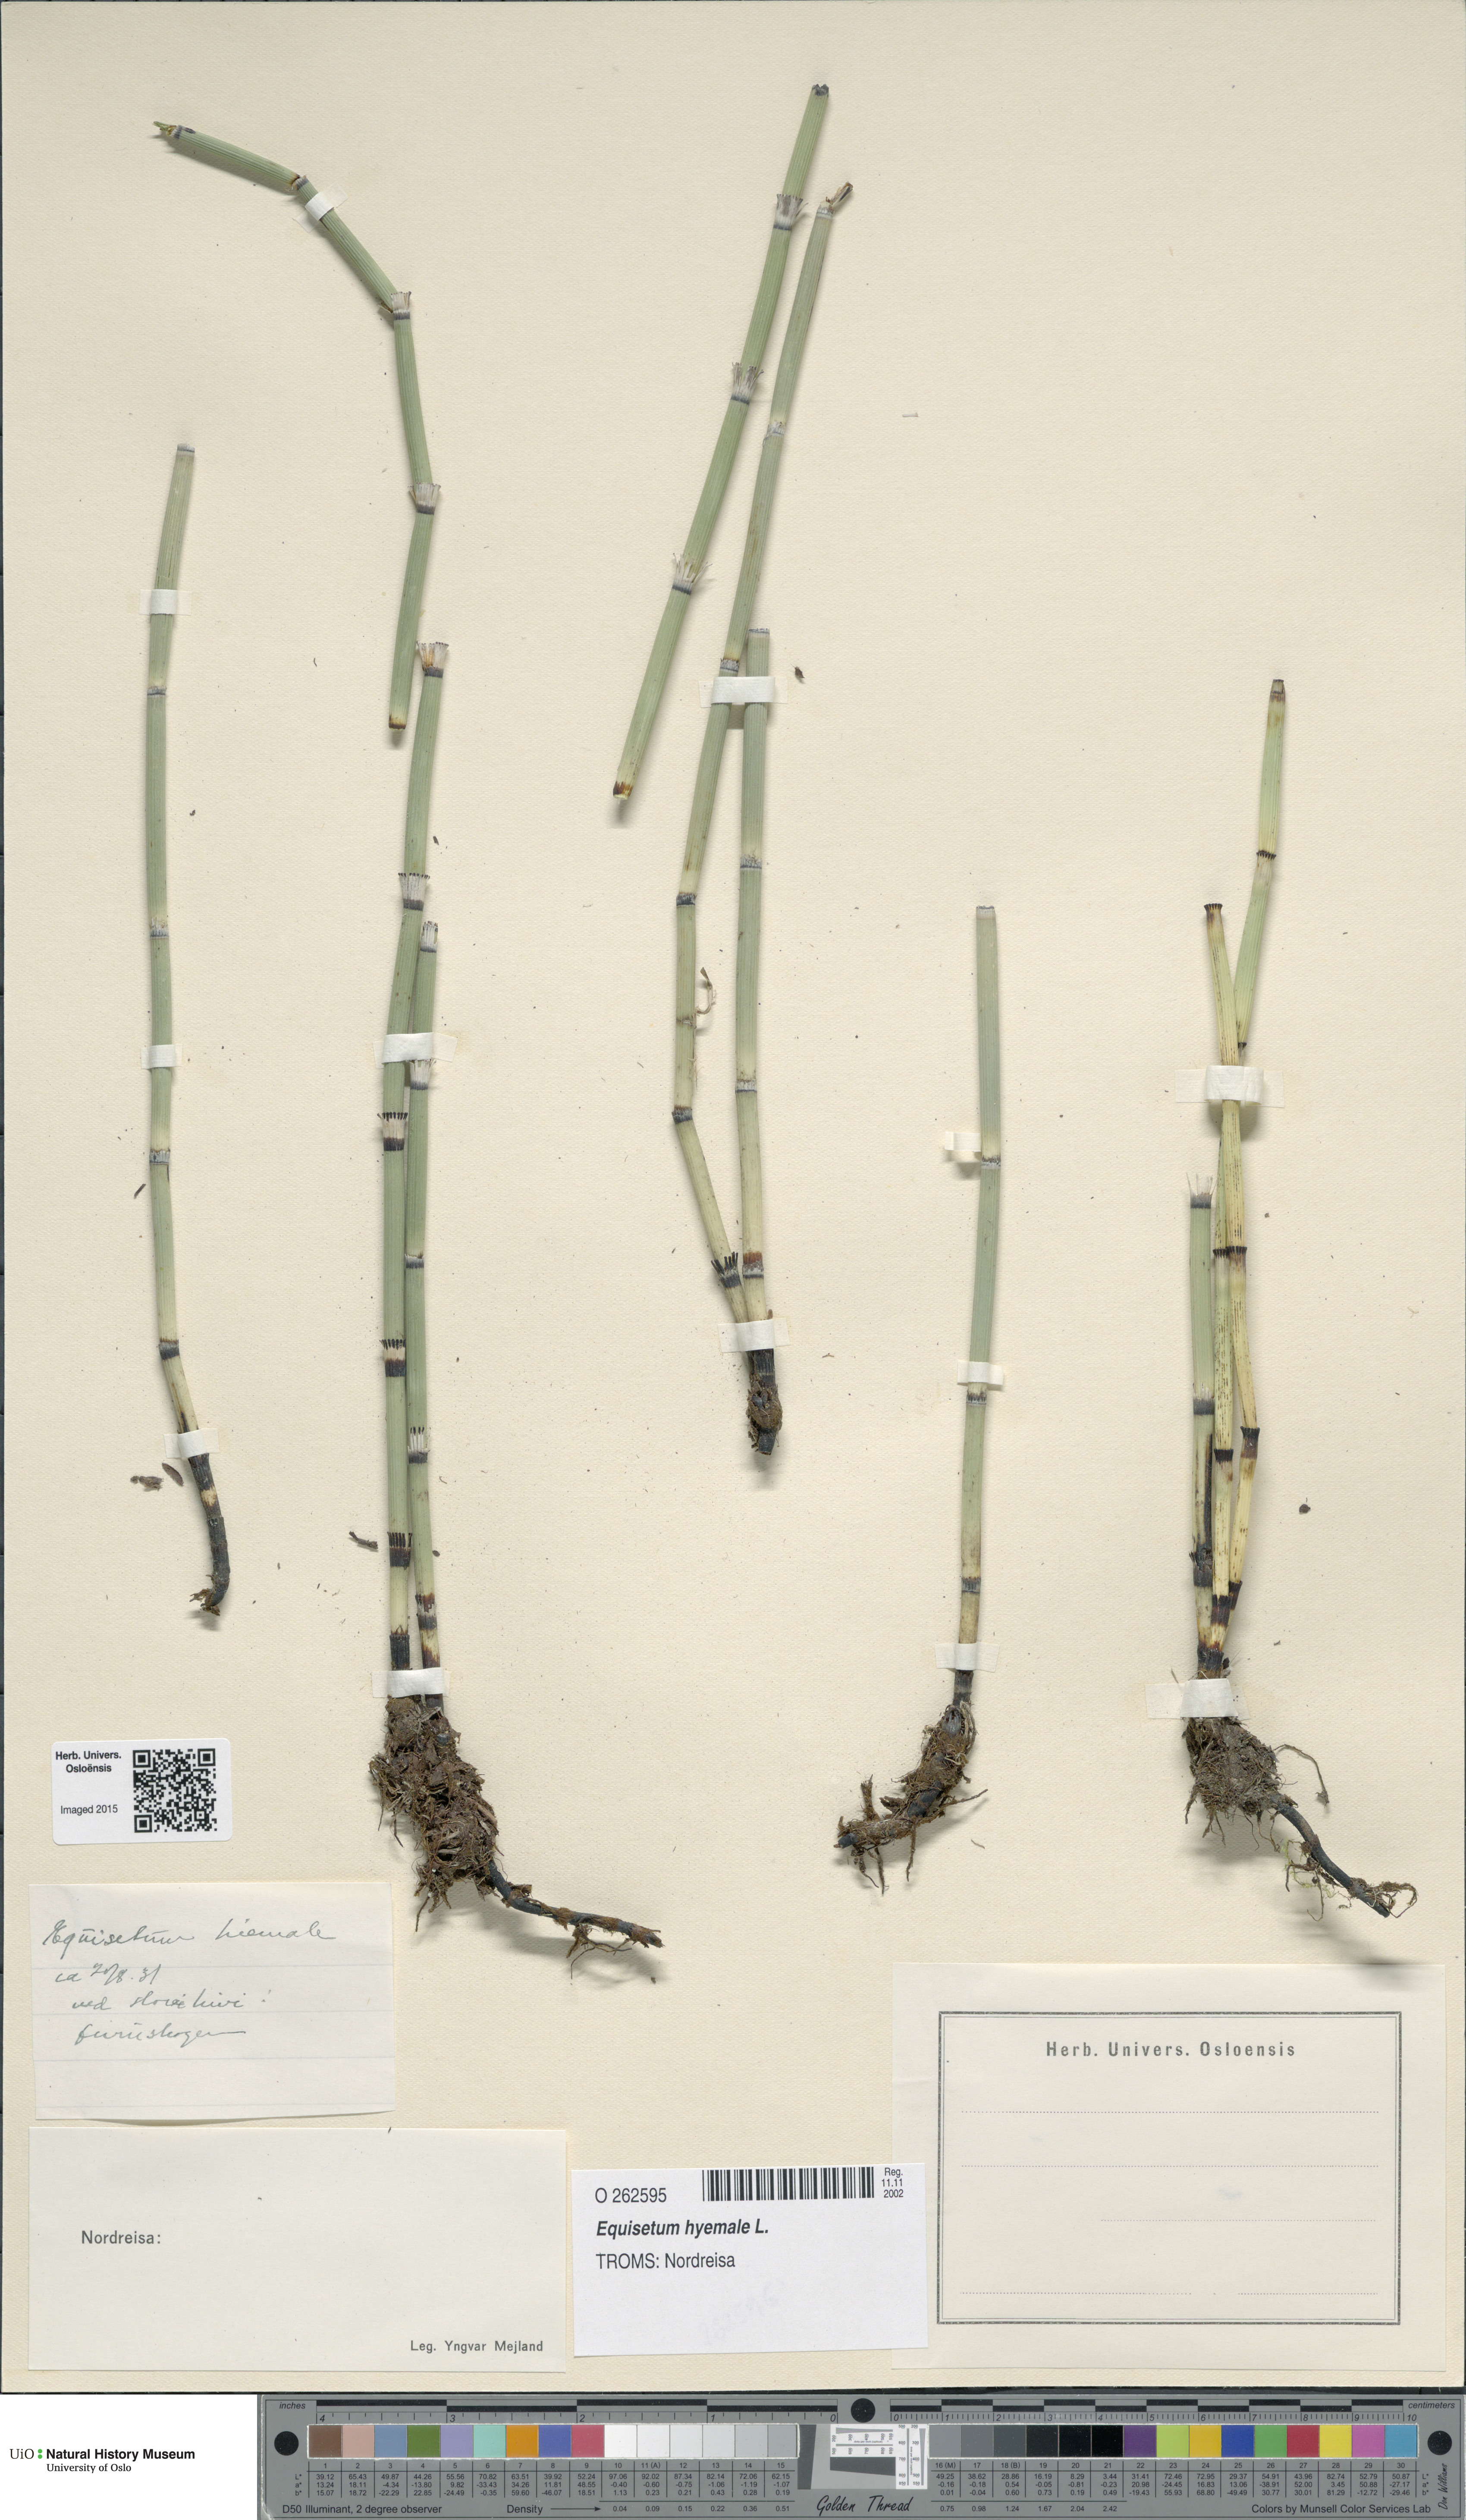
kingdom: Plantae
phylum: Tracheophyta
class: Polypodiopsida
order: Equisetales
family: Equisetaceae
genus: Equisetum
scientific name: Equisetum hyemale
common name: Rough horsetail
